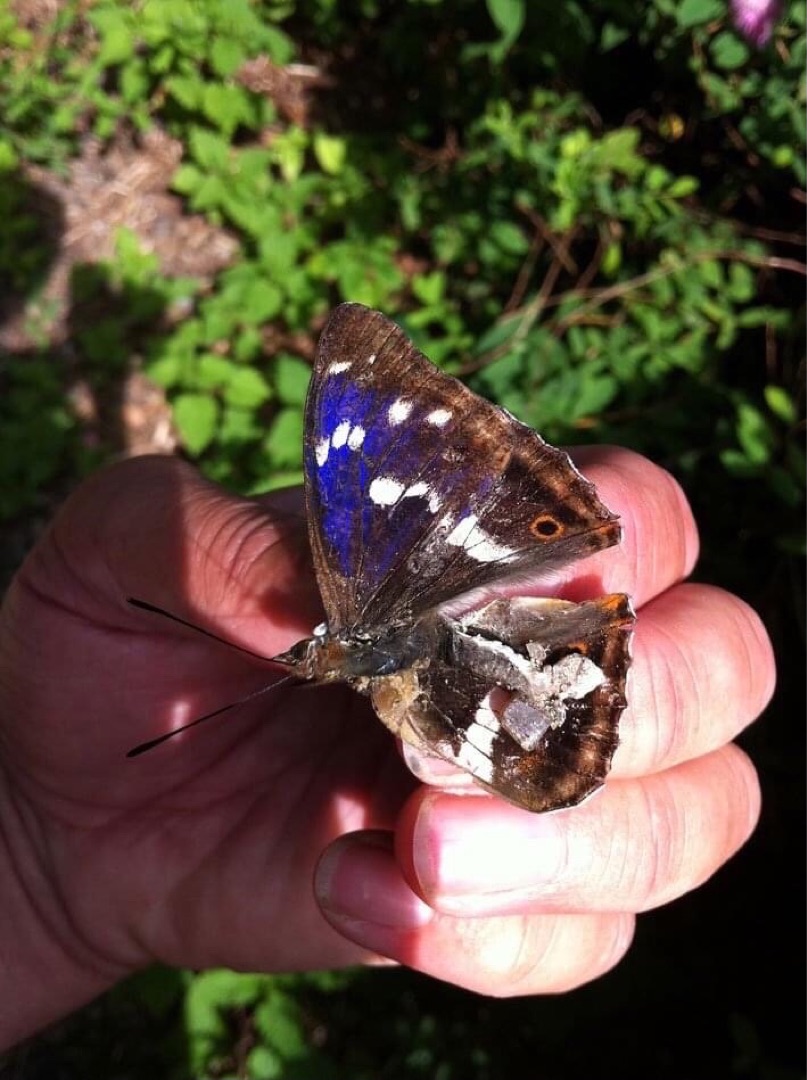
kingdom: Animalia
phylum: Arthropoda
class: Insecta
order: Lepidoptera
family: Nymphalidae
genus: Apatura
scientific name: Apatura iris
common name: Iris
